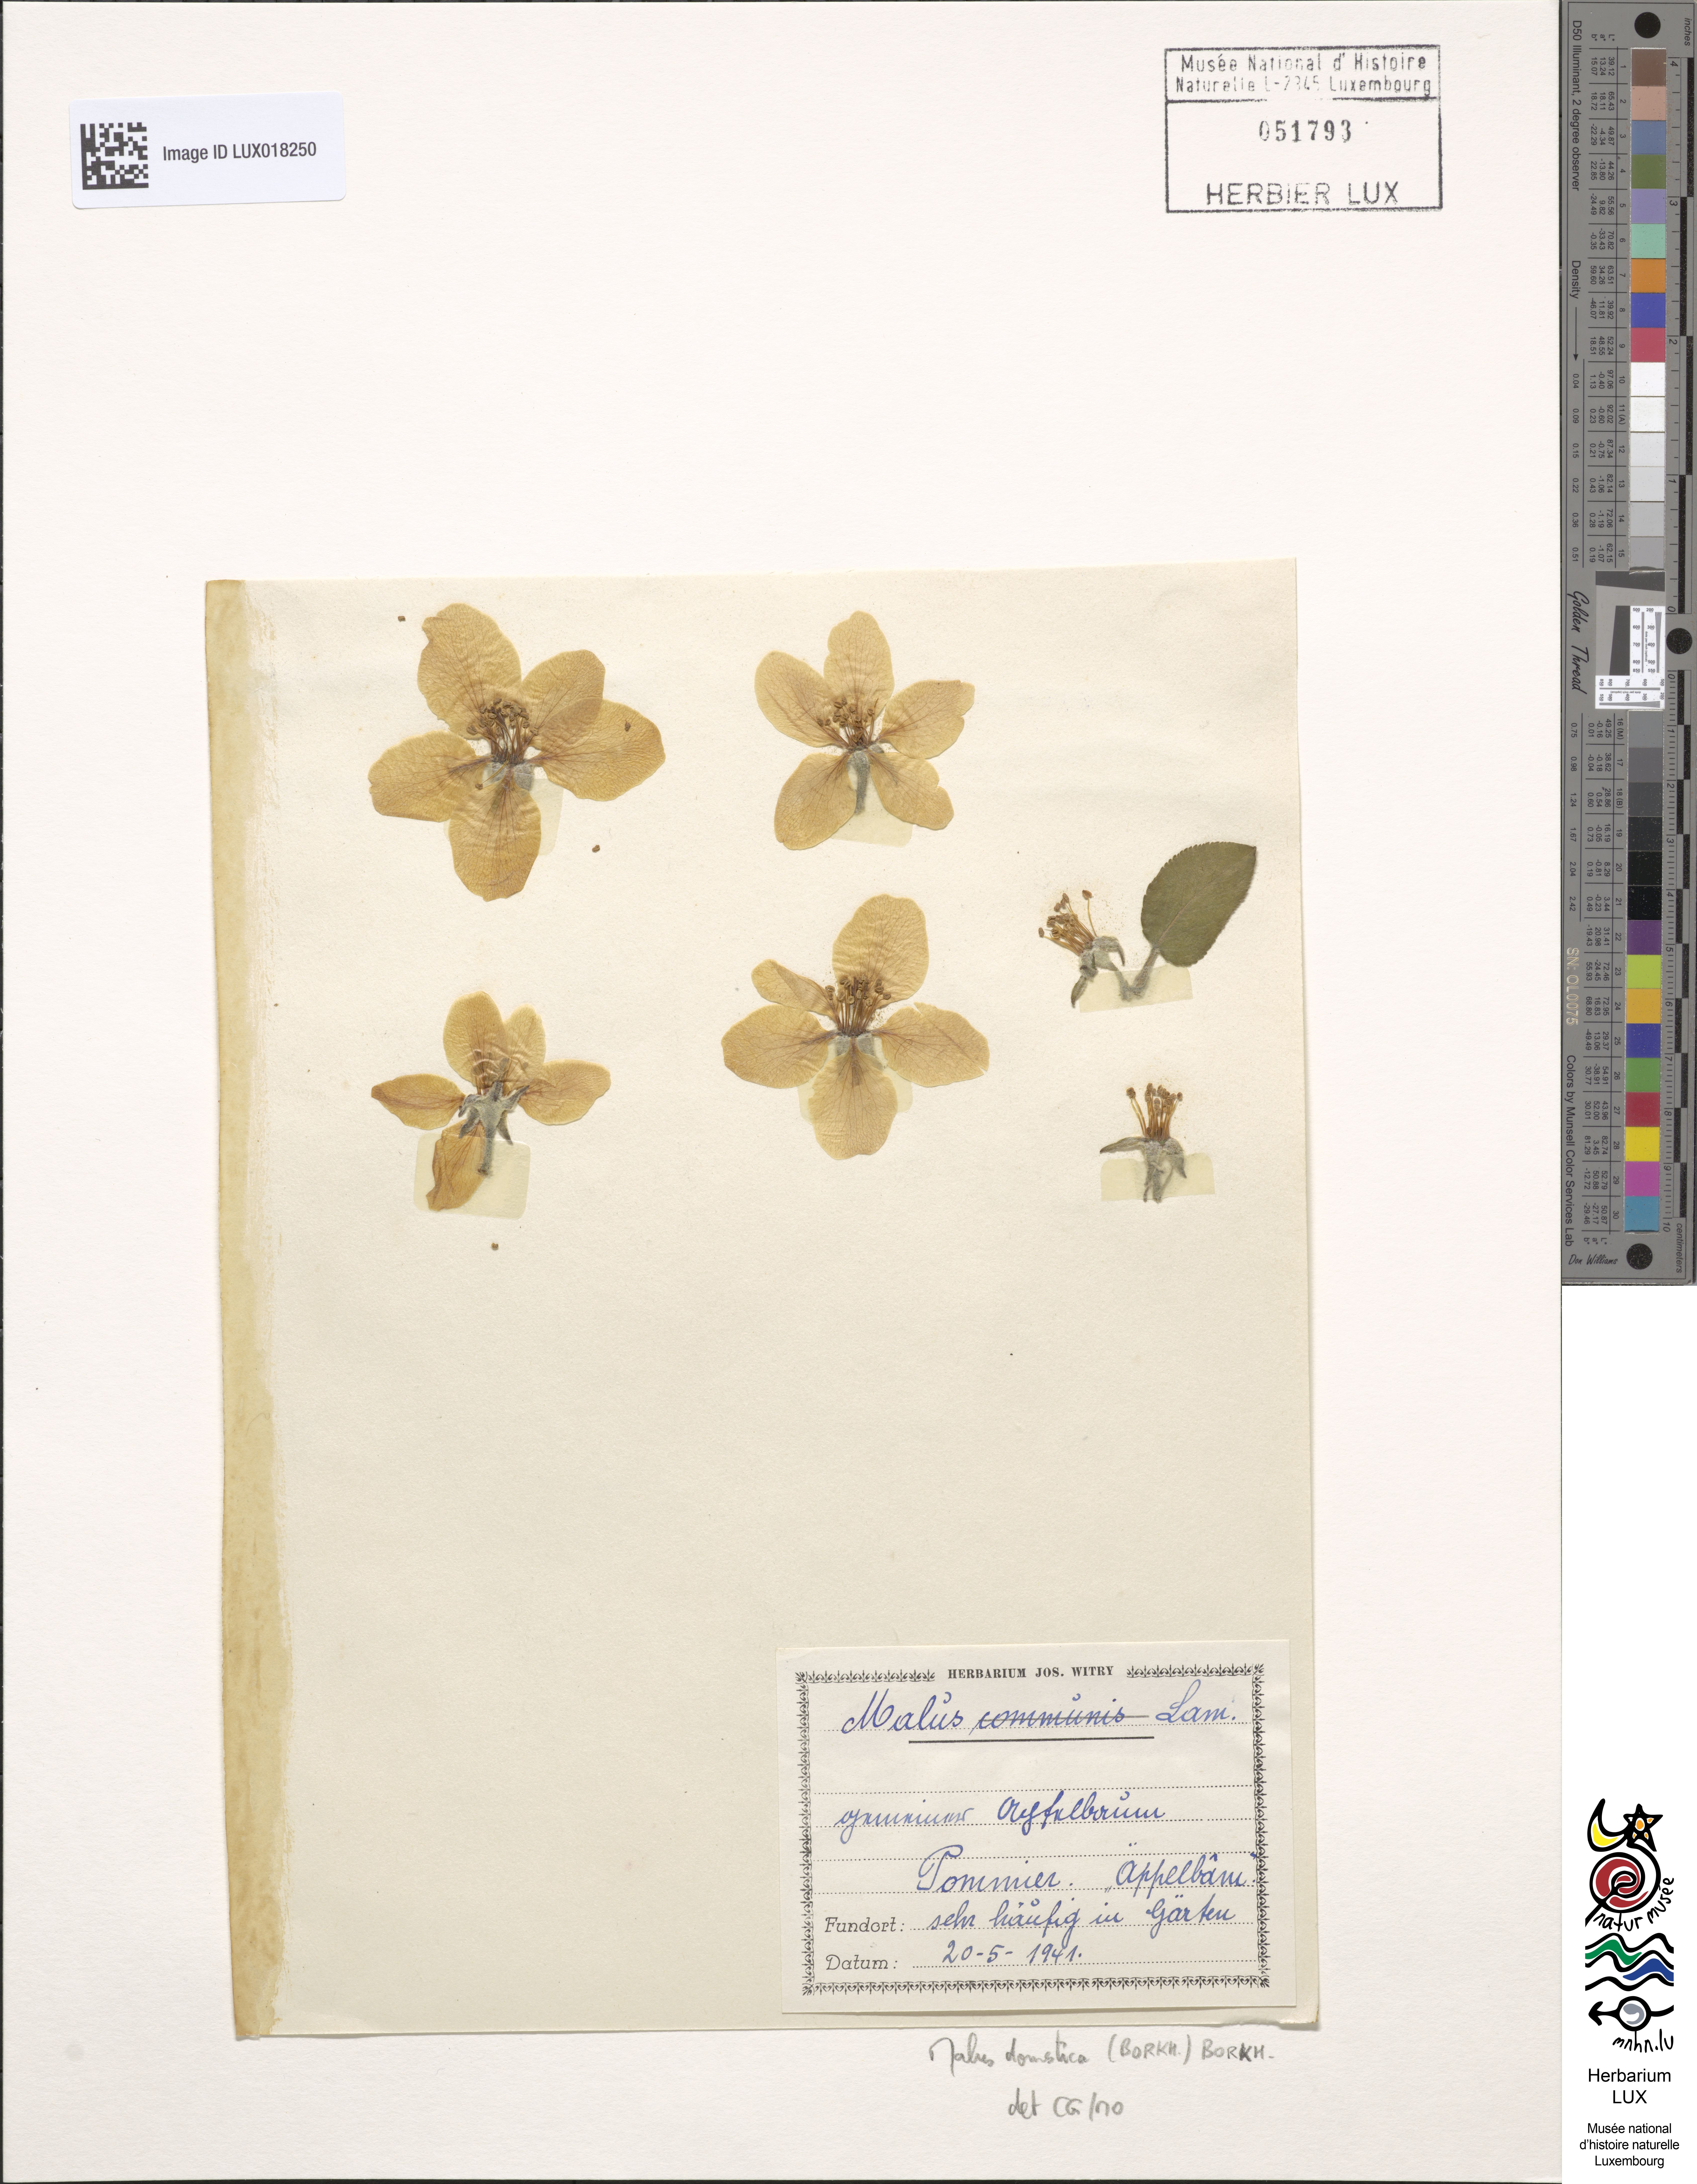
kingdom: Plantae
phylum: Tracheophyta
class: Magnoliopsida
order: Rosales
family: Rosaceae
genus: Malus
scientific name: Malus domestica
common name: Apple
